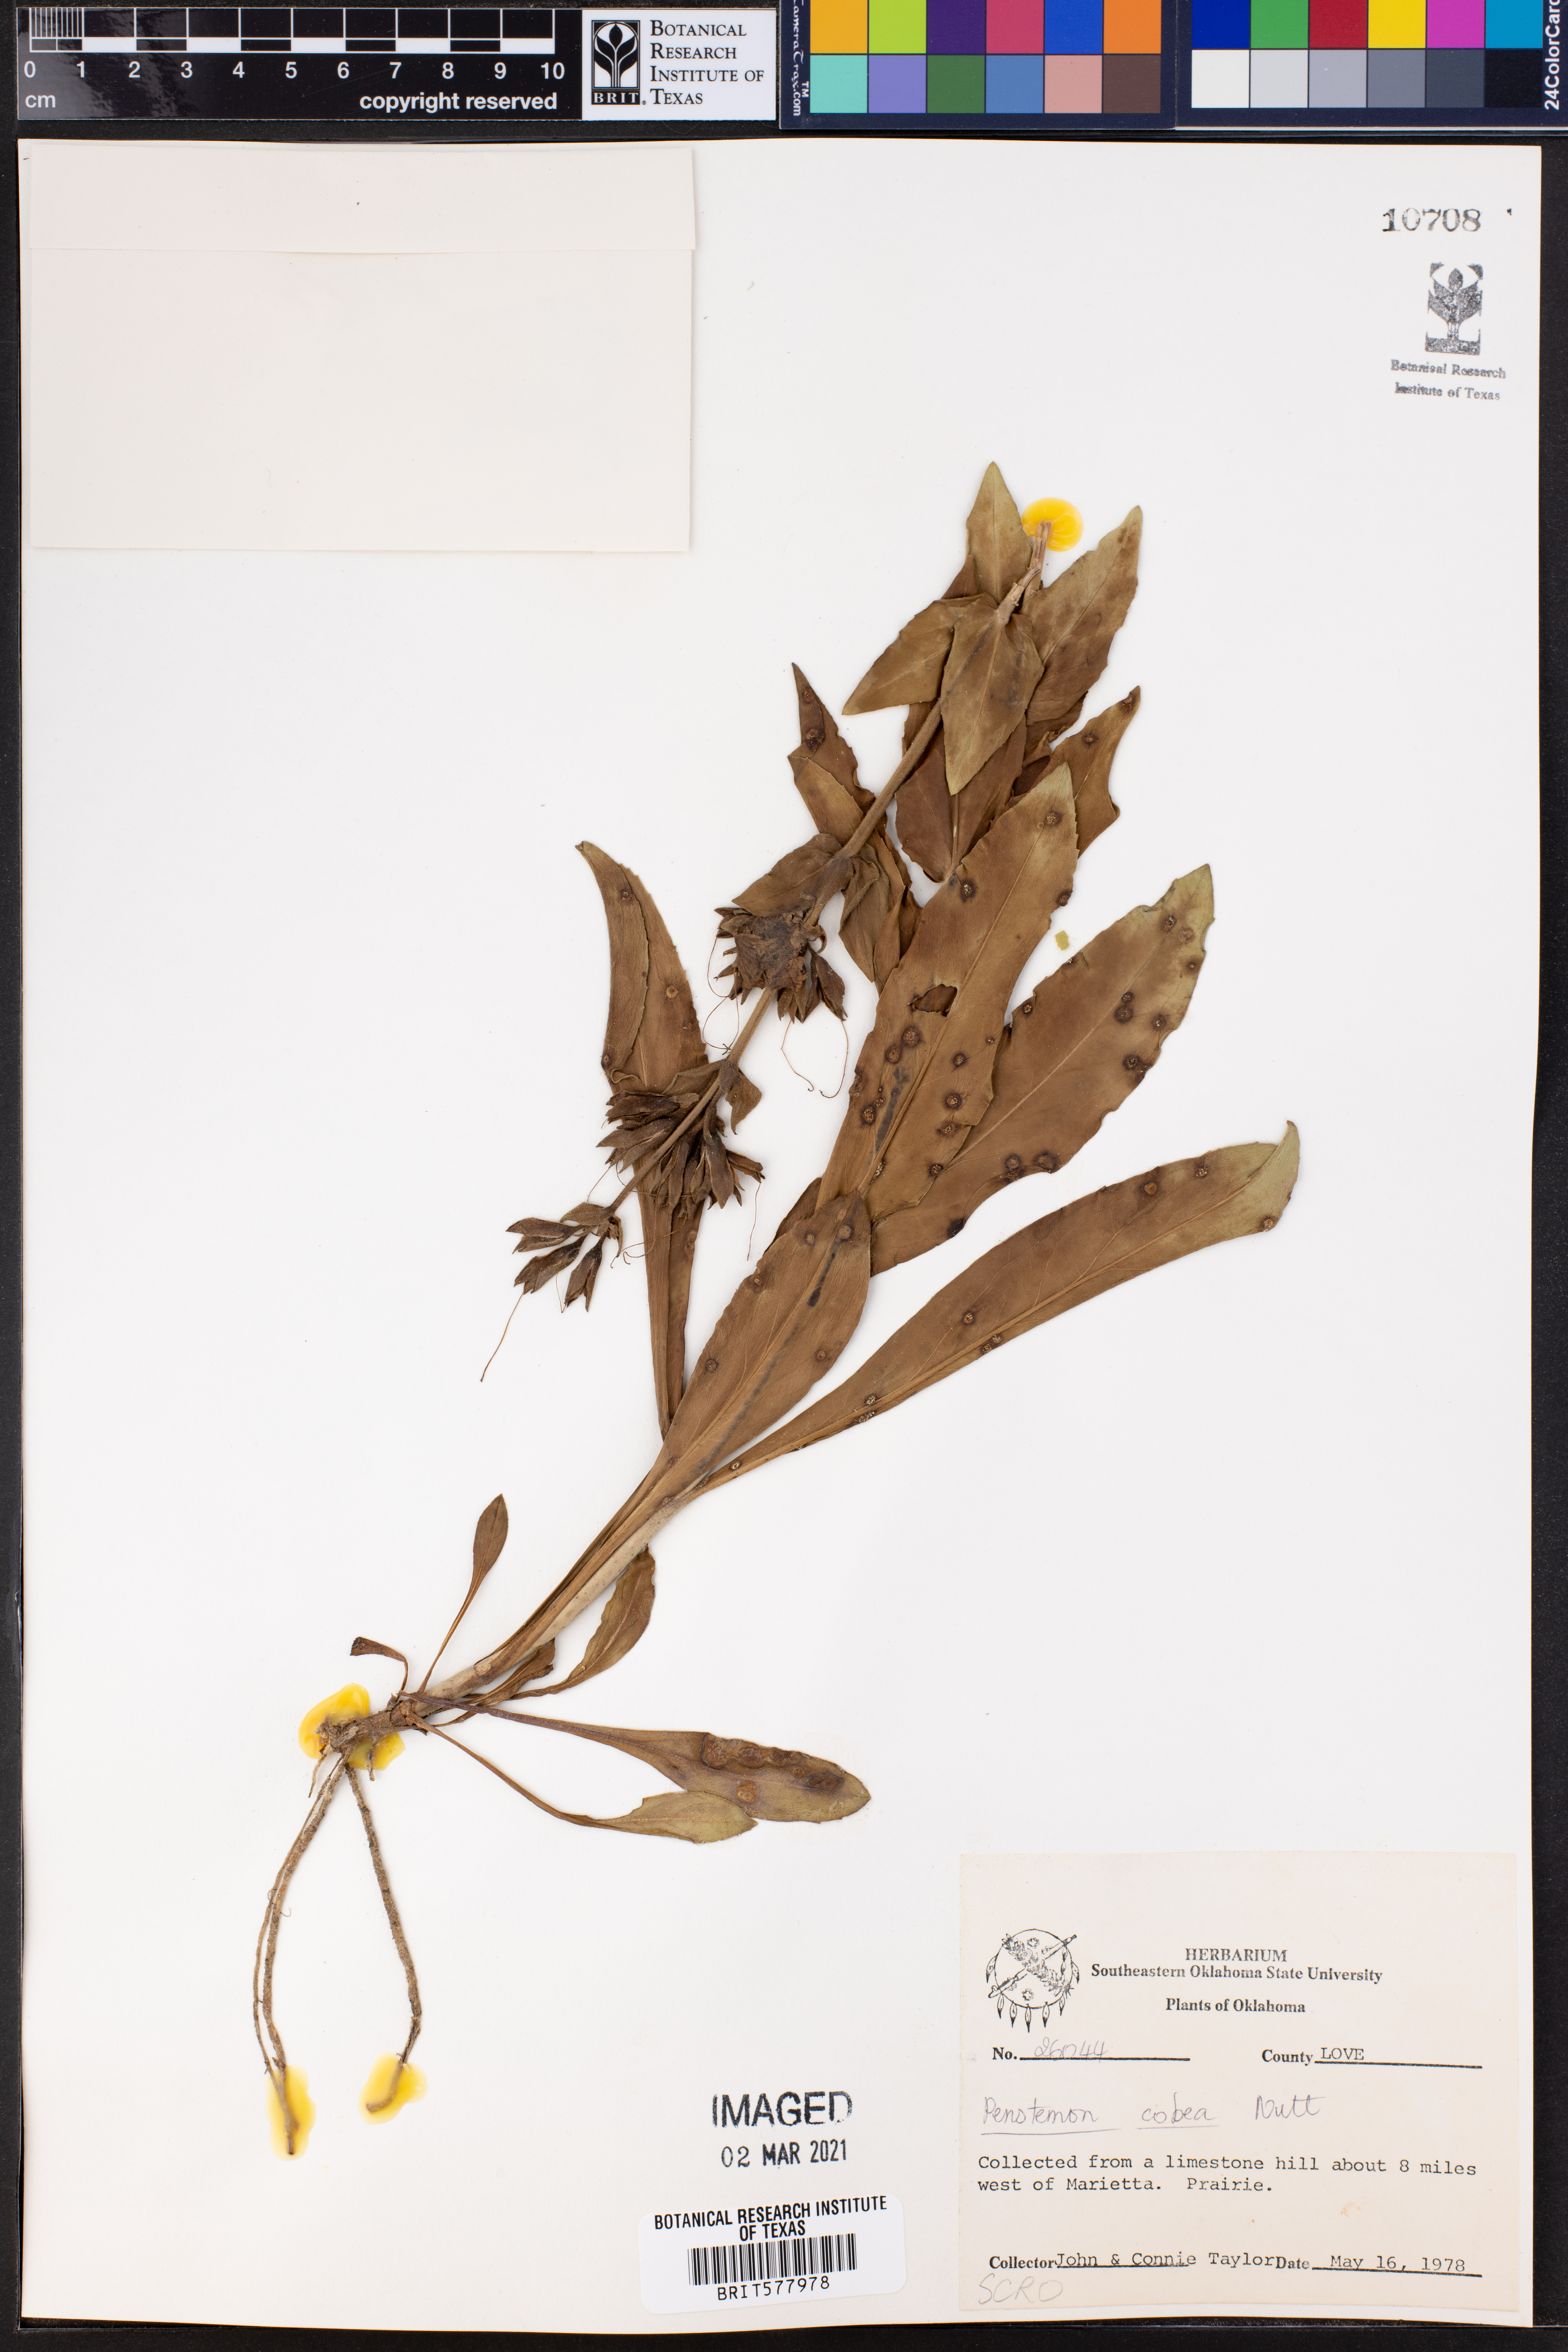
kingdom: Plantae
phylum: Tracheophyta
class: Magnoliopsida
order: Lamiales
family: Plantaginaceae
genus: Penstemon
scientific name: Penstemon cobaea
